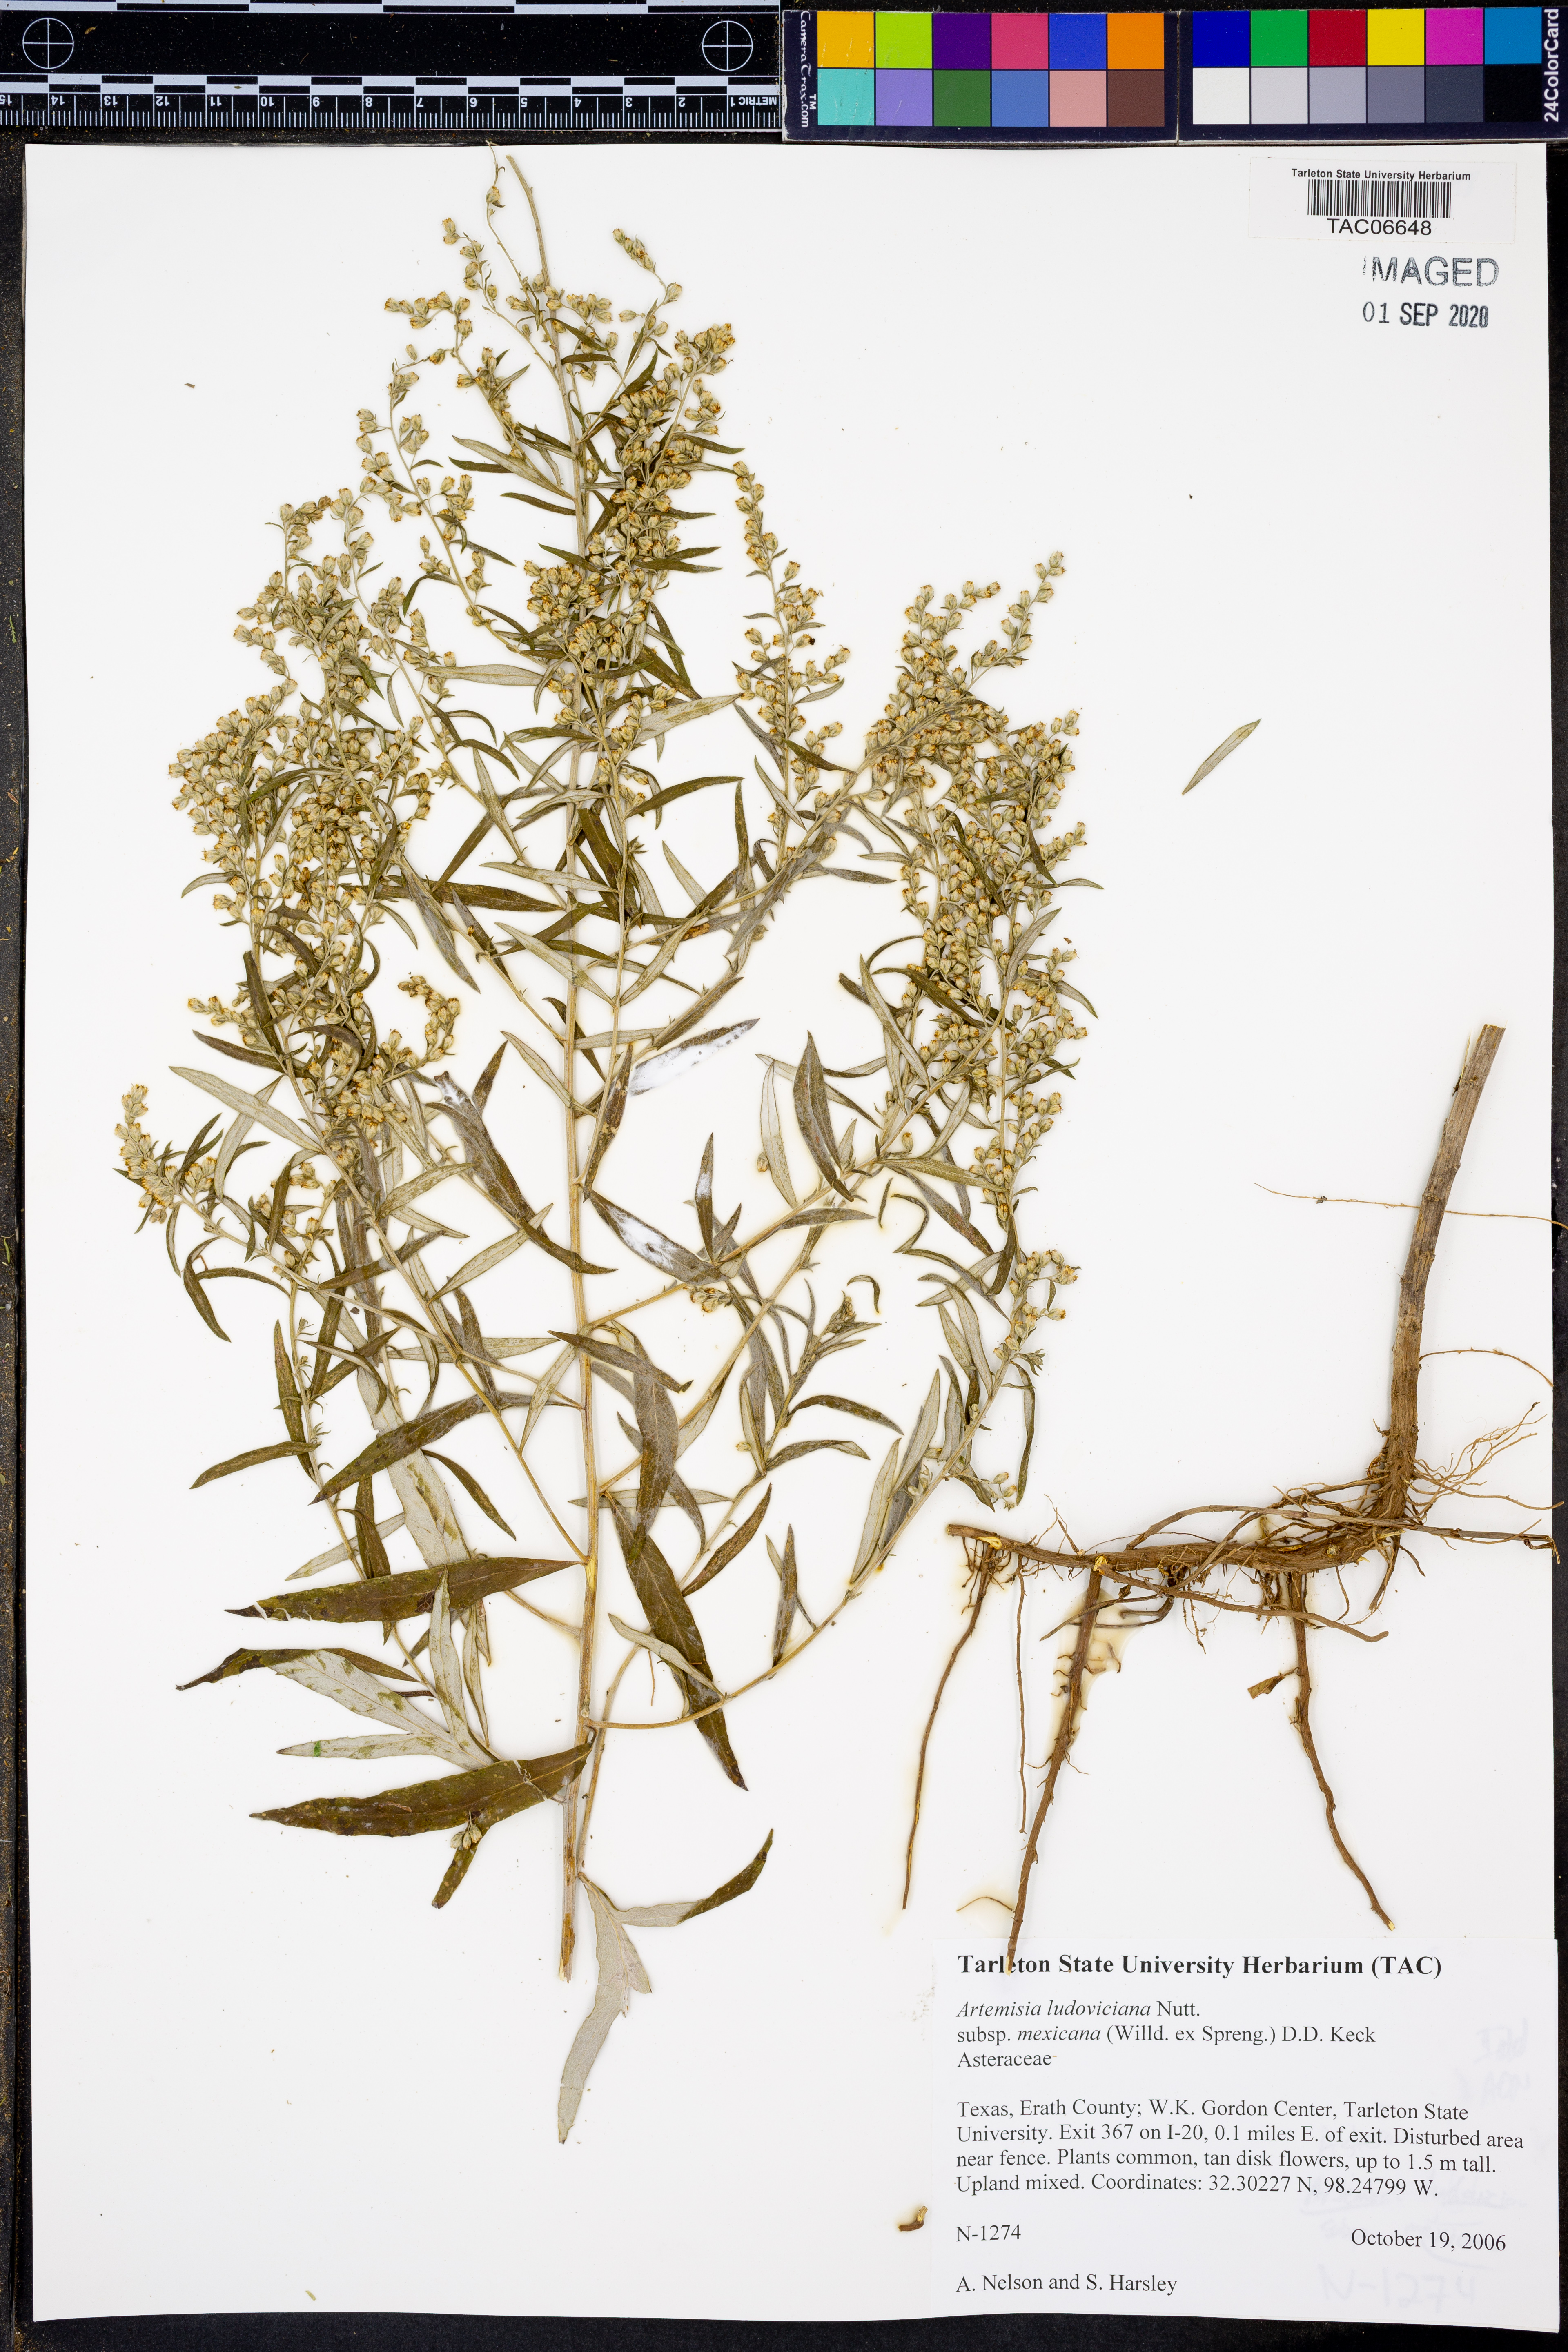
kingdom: Plantae
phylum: Tracheophyta
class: Magnoliopsida
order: Asterales
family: Asteraceae
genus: Artemisia
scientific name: Artemisia ludoviciana
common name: Western mugwort
